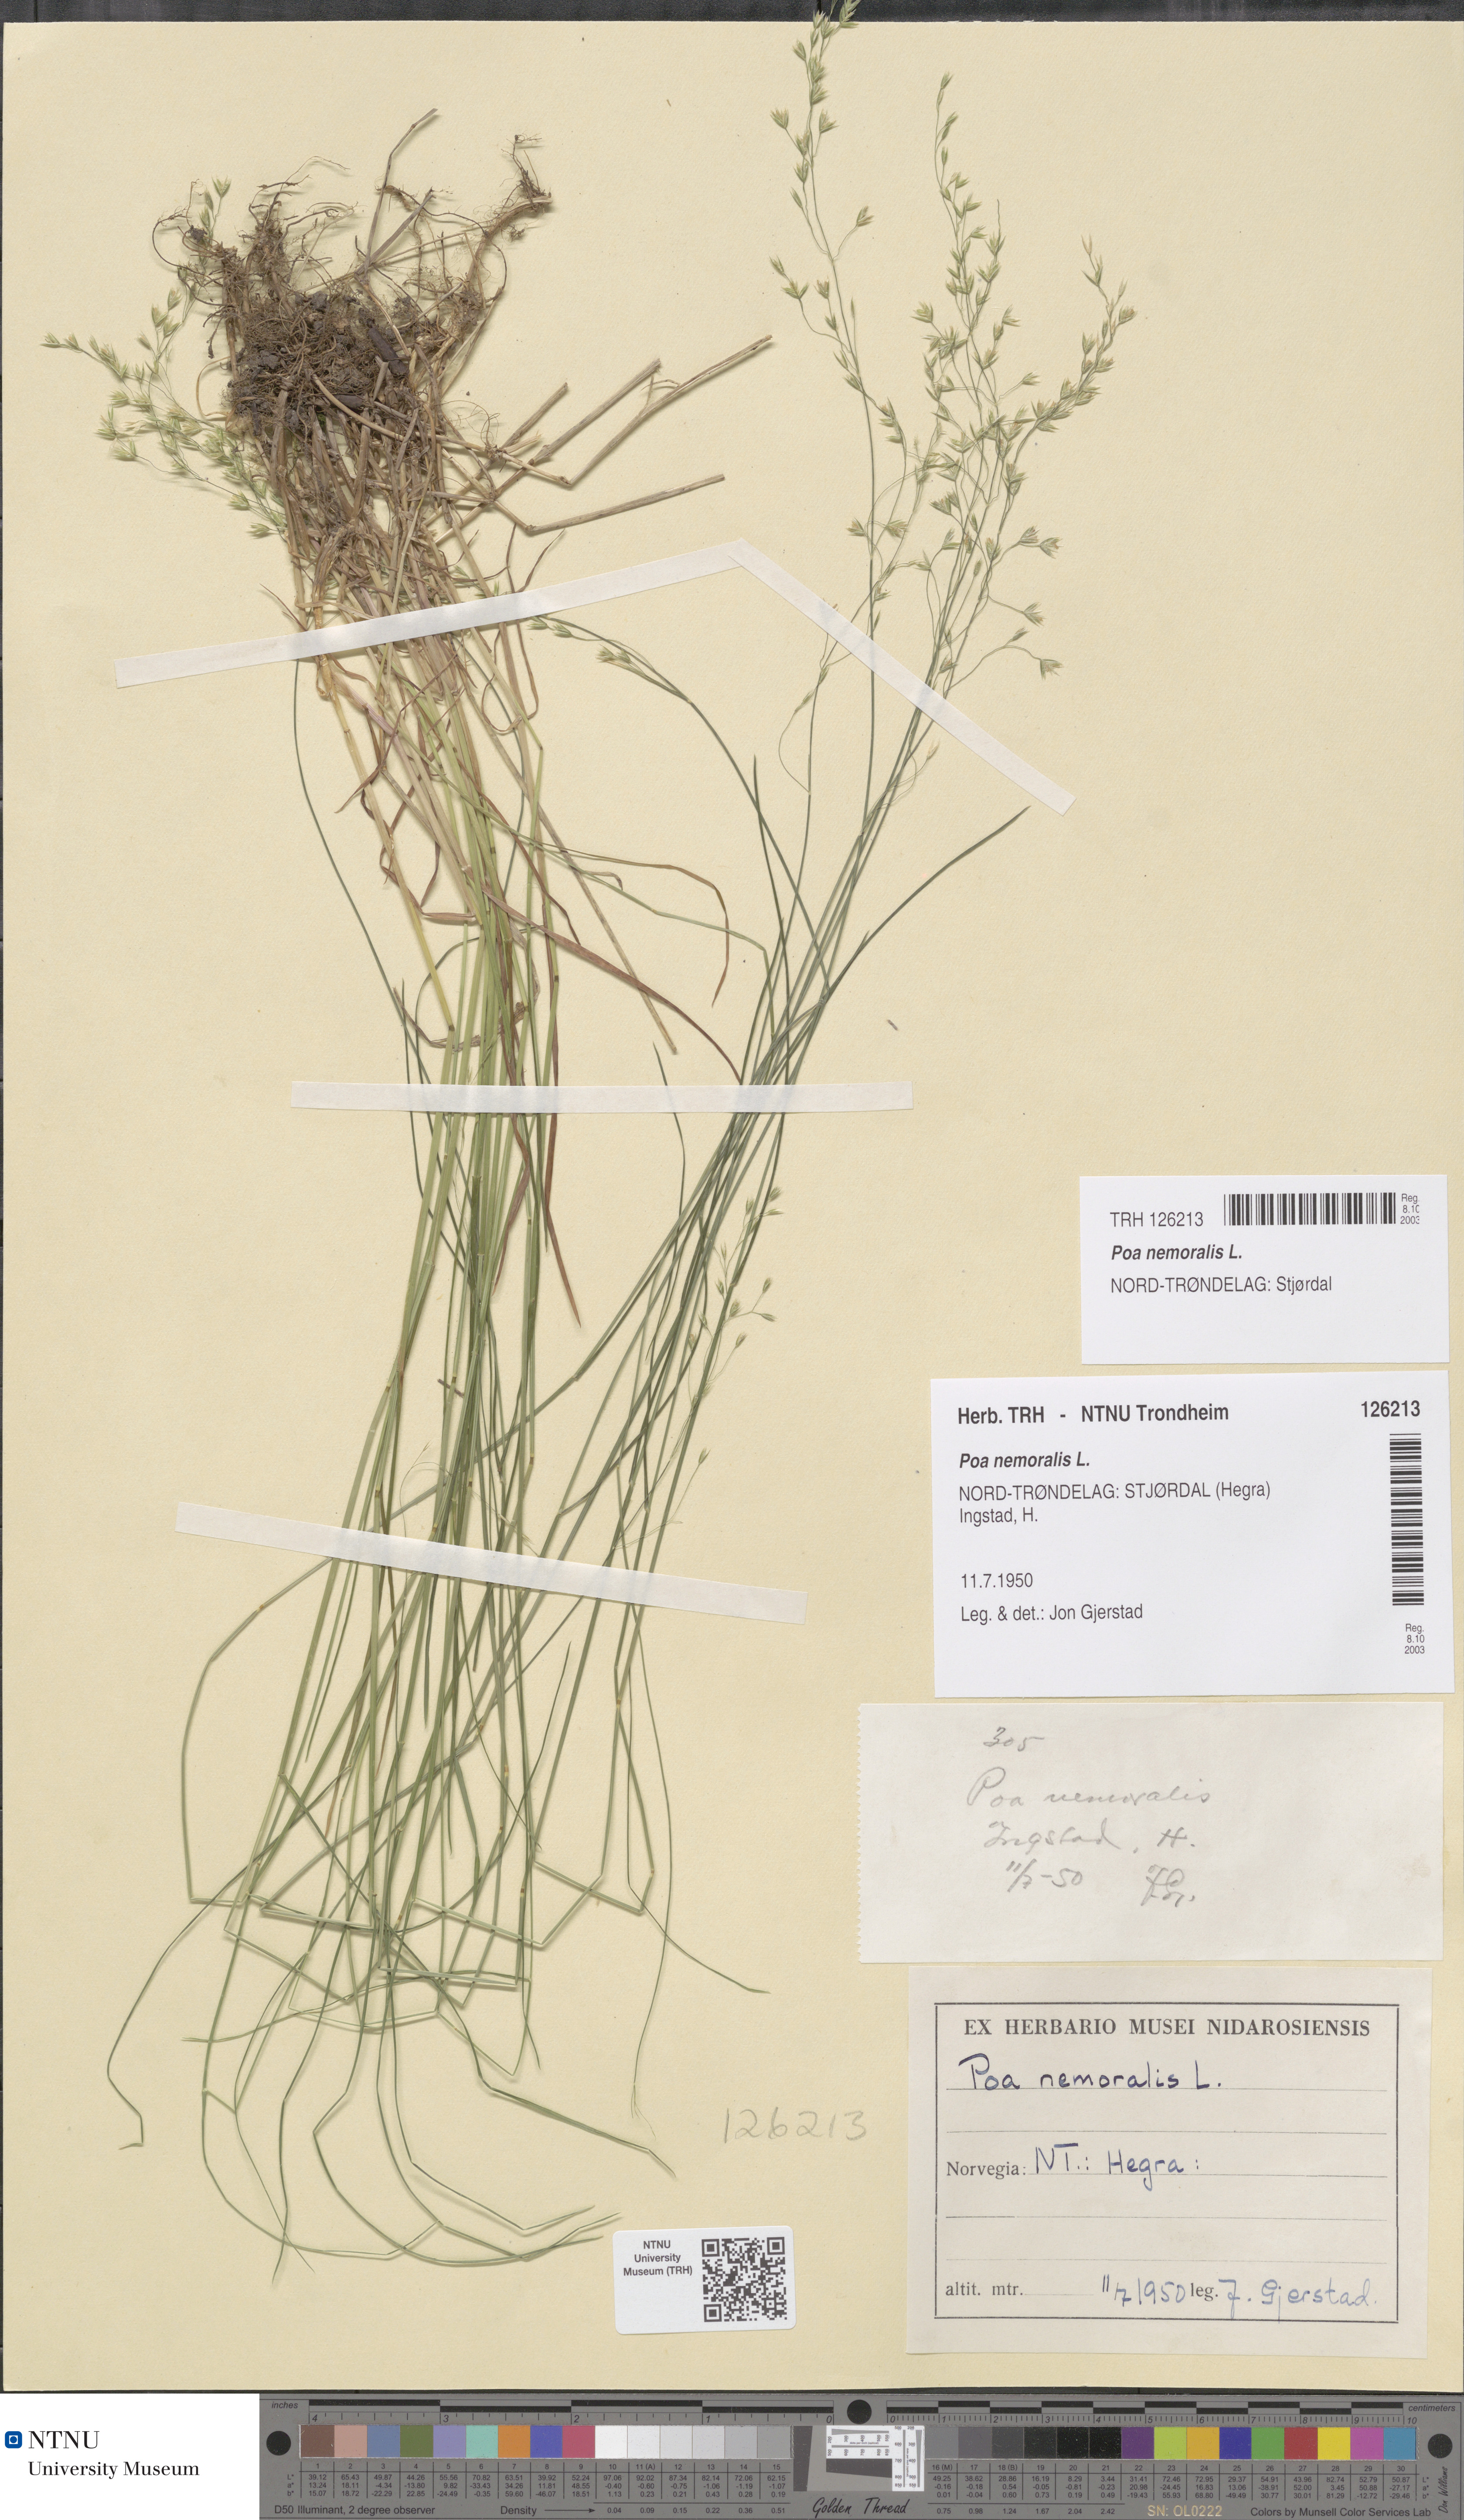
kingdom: Plantae
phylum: Tracheophyta
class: Liliopsida
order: Poales
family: Poaceae
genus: Poa
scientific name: Poa nemoralis
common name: Wood bluegrass
